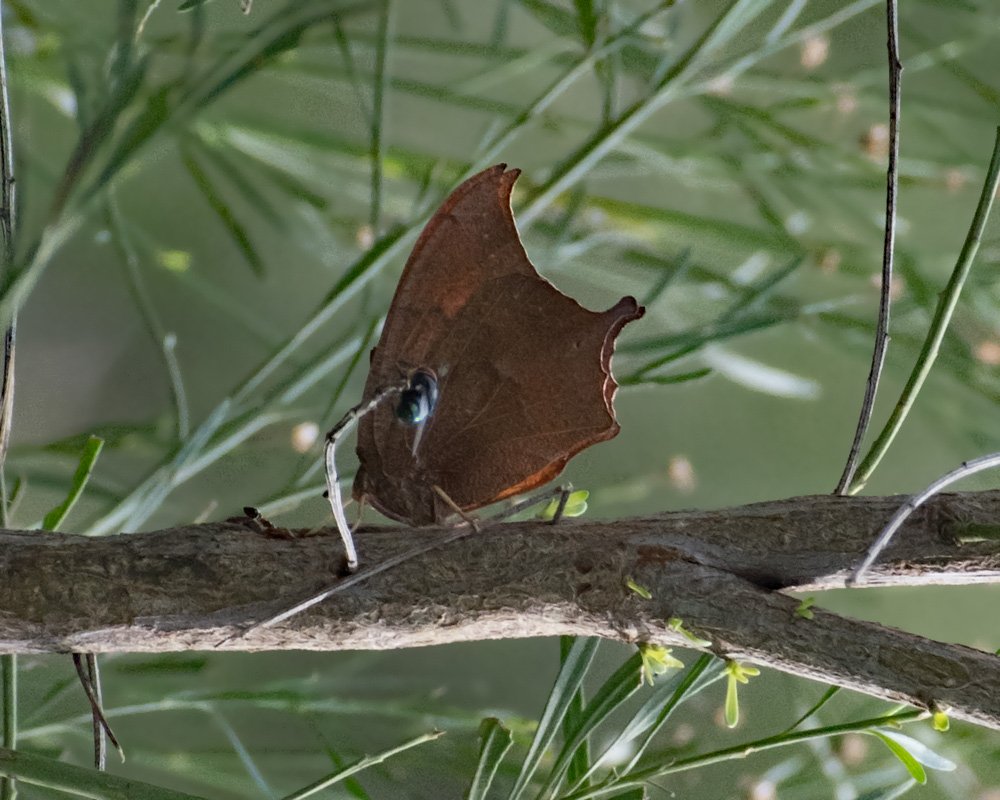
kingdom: Animalia
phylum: Arthropoda
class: Insecta
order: Lepidoptera
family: Nymphalidae
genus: Anaea
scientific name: Anaea aidea
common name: Tropical Leafwing
